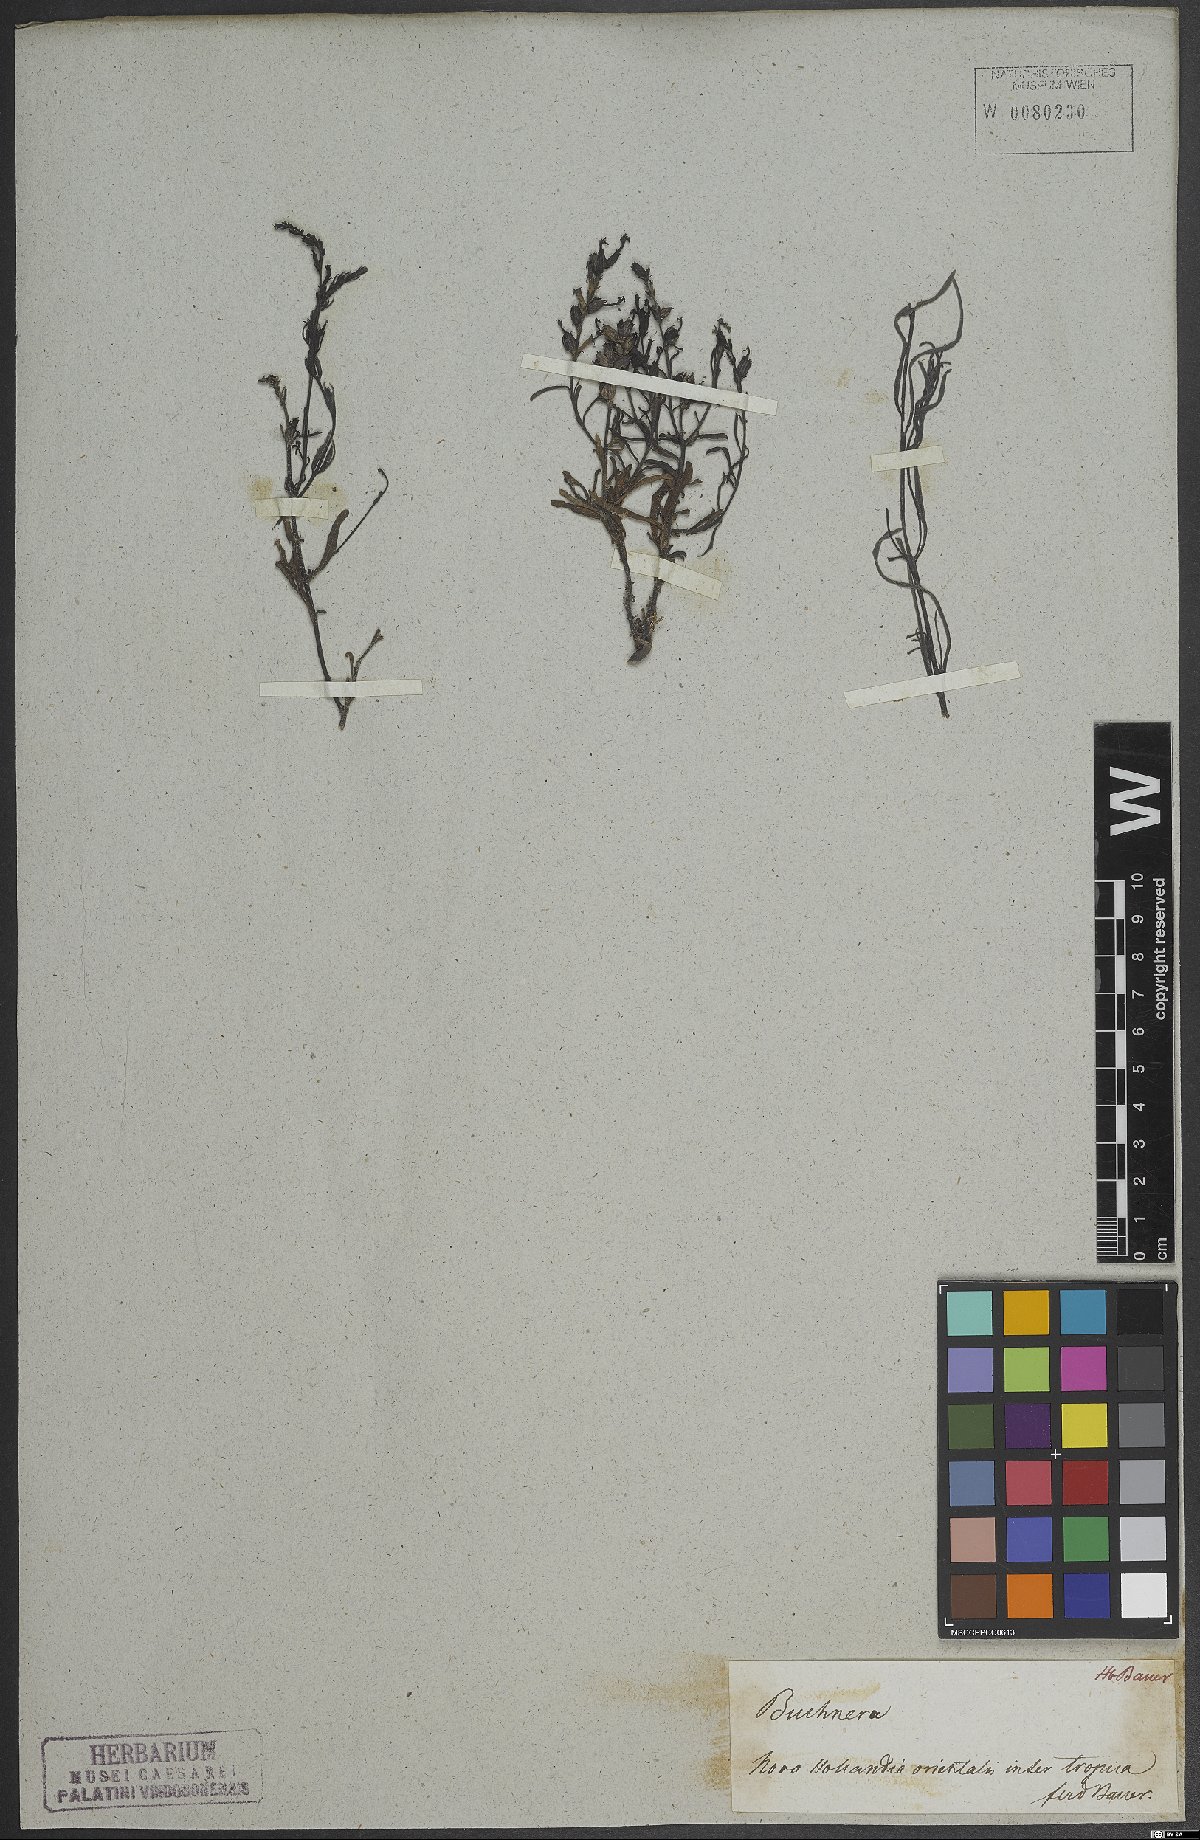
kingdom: Plantae
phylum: Tracheophyta
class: Magnoliopsida
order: Lamiales
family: Orobanchaceae
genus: Striga
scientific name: Striga curviflora
